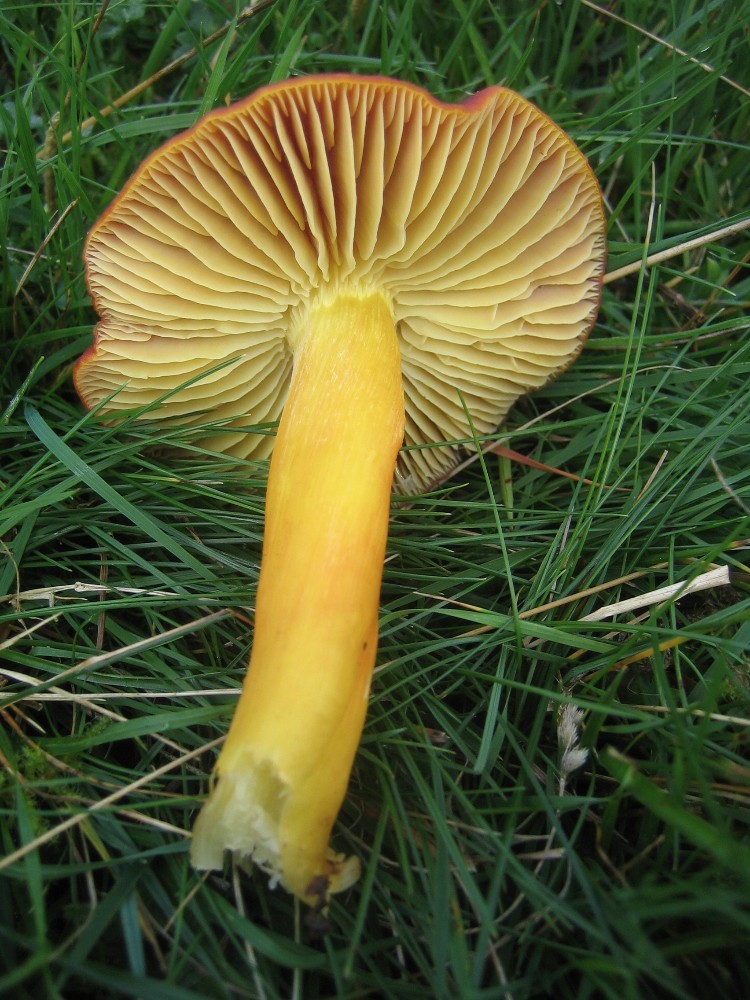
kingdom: Fungi
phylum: Basidiomycota
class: Agaricomycetes
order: Agaricales
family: Hygrophoraceae
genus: Hygrocybe
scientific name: Hygrocybe punicea
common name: skarlagen-vokshat
